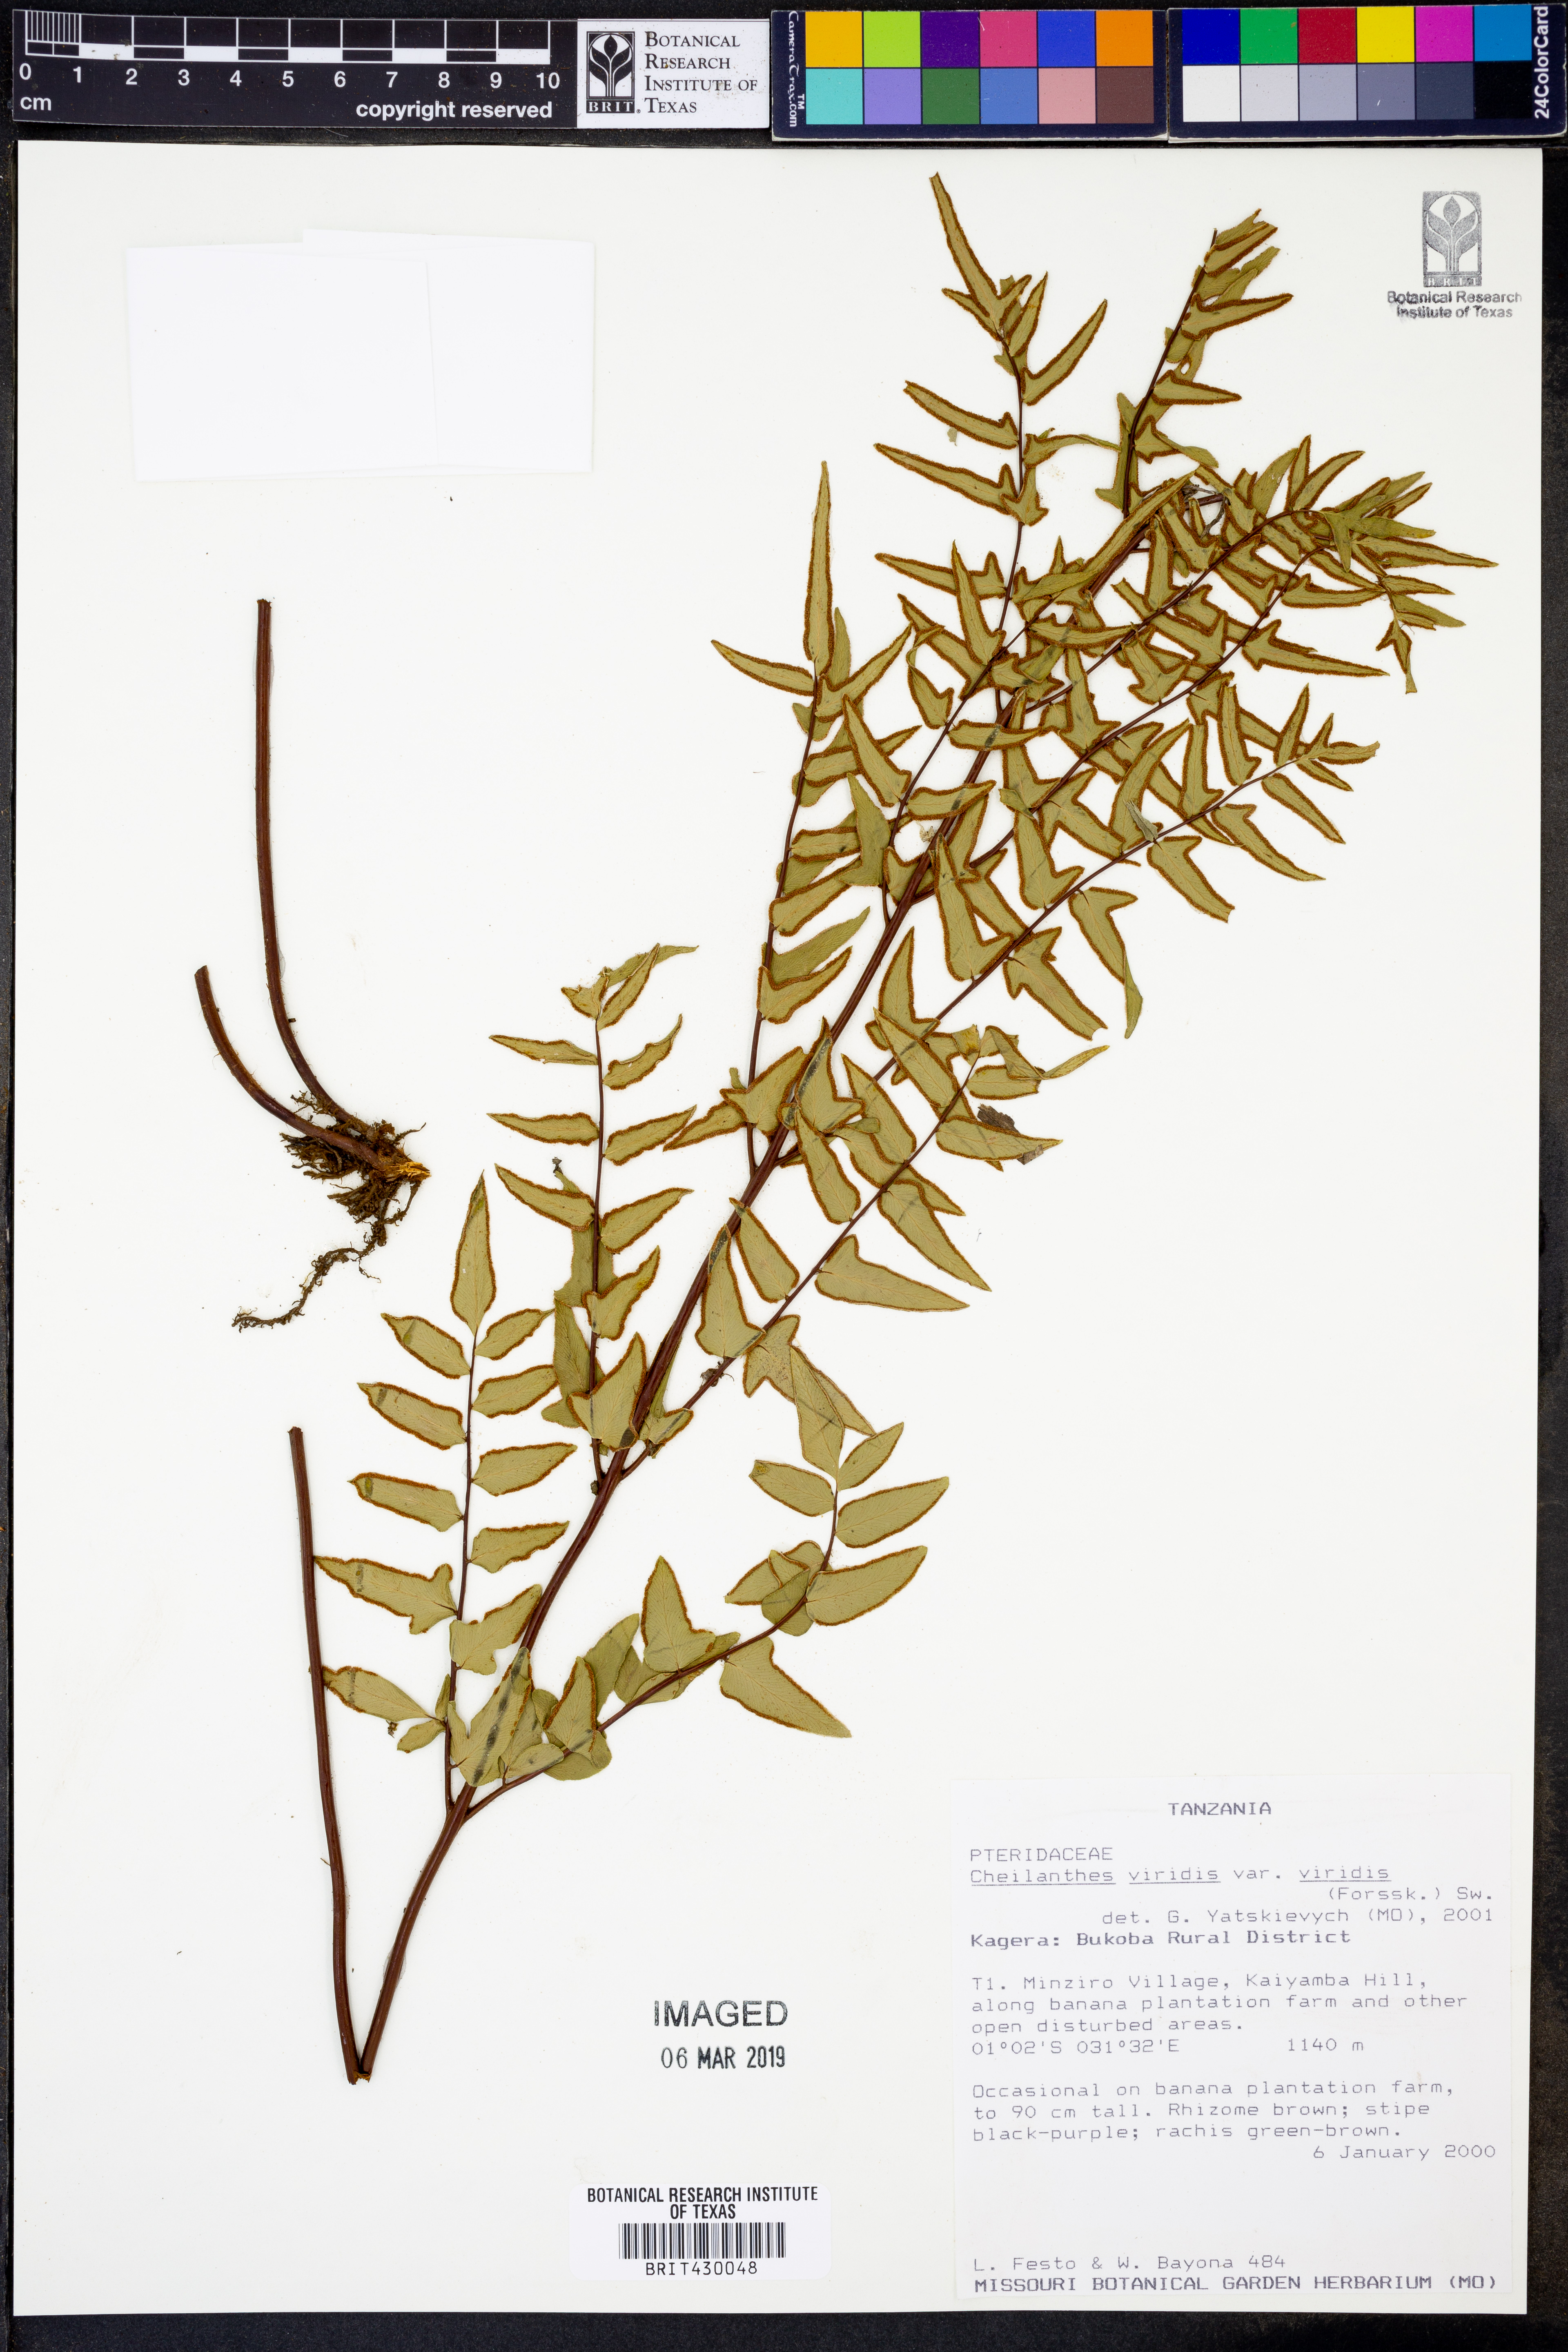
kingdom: Plantae
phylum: Tracheophyta
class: Polypodiopsida
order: Polypodiales
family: Pteridaceae
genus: Cheilanthes
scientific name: Cheilanthes viridis
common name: Green cliffbrake
